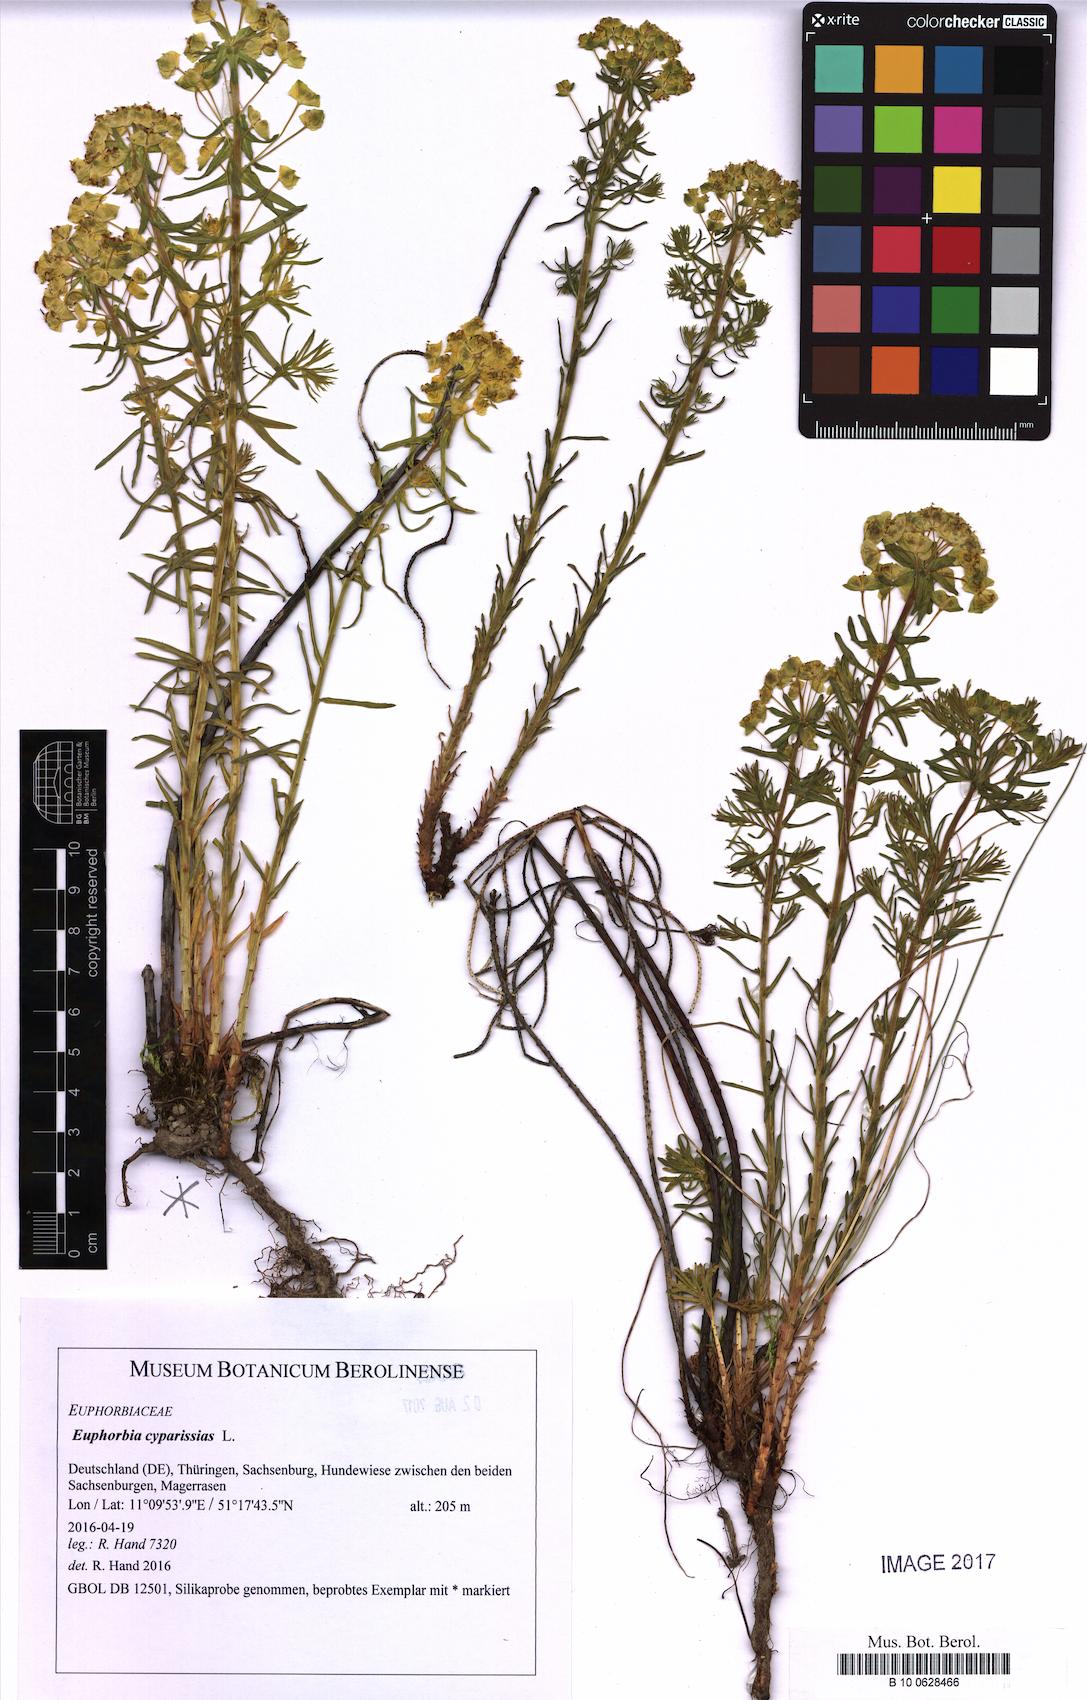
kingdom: Plantae
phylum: Tracheophyta
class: Magnoliopsida
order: Malpighiales
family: Euphorbiaceae
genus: Euphorbia
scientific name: Euphorbia cyparissias
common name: Cypress spurge
